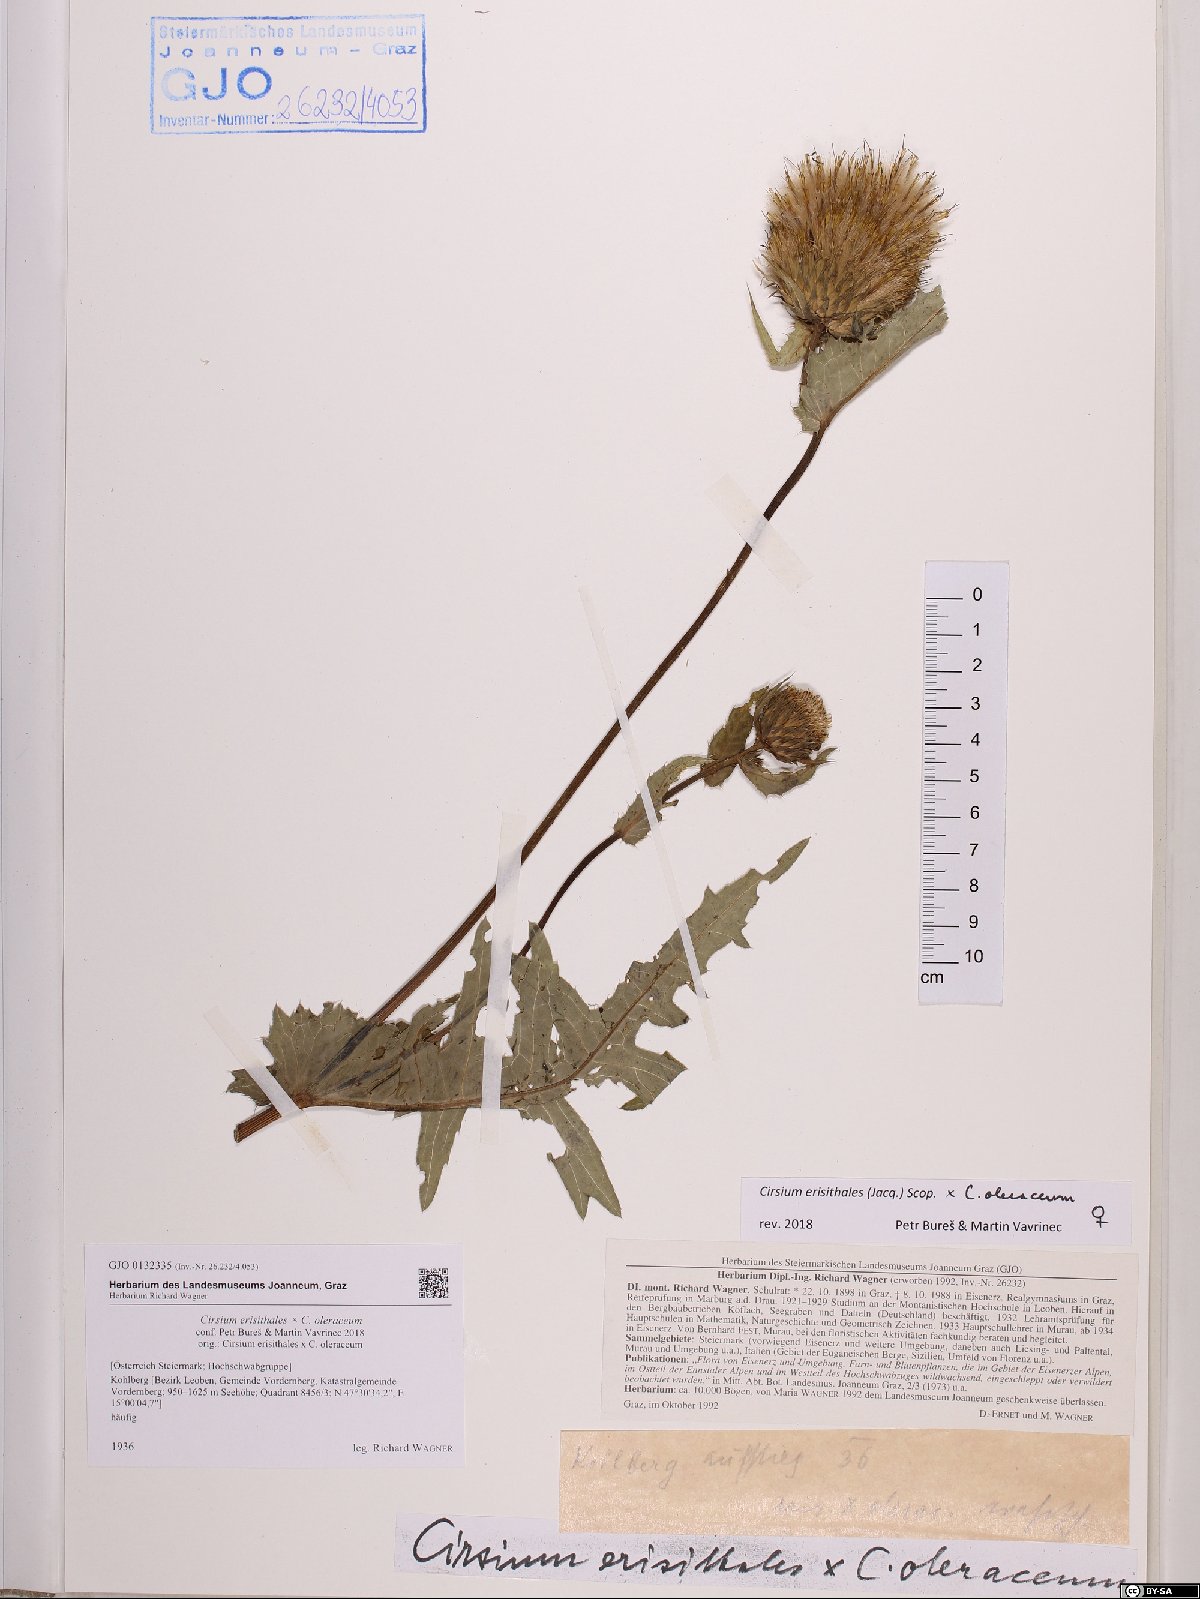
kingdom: Plantae
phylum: Tracheophyta
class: Magnoliopsida
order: Asterales
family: Asteraceae
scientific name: Asteraceae
